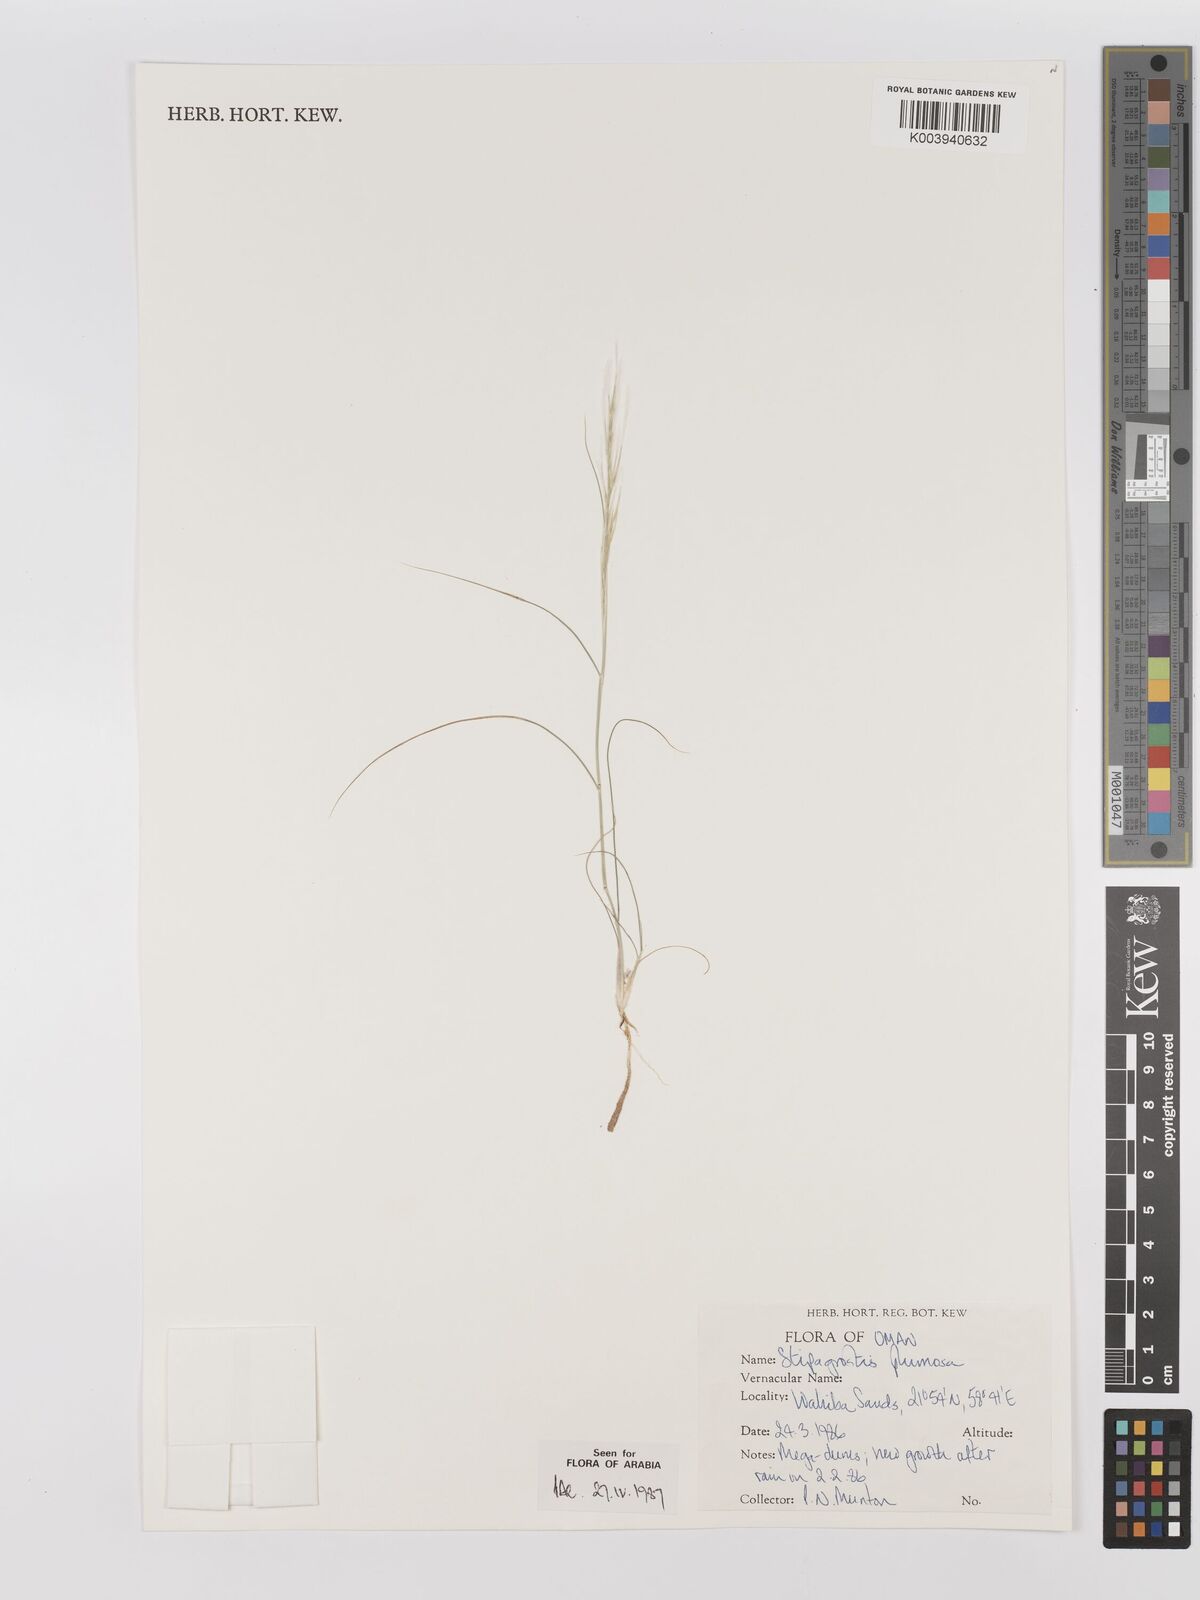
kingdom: Plantae
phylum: Tracheophyta
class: Liliopsida
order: Poales
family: Poaceae
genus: Stipagrostis
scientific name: Stipagrostis plumosa
